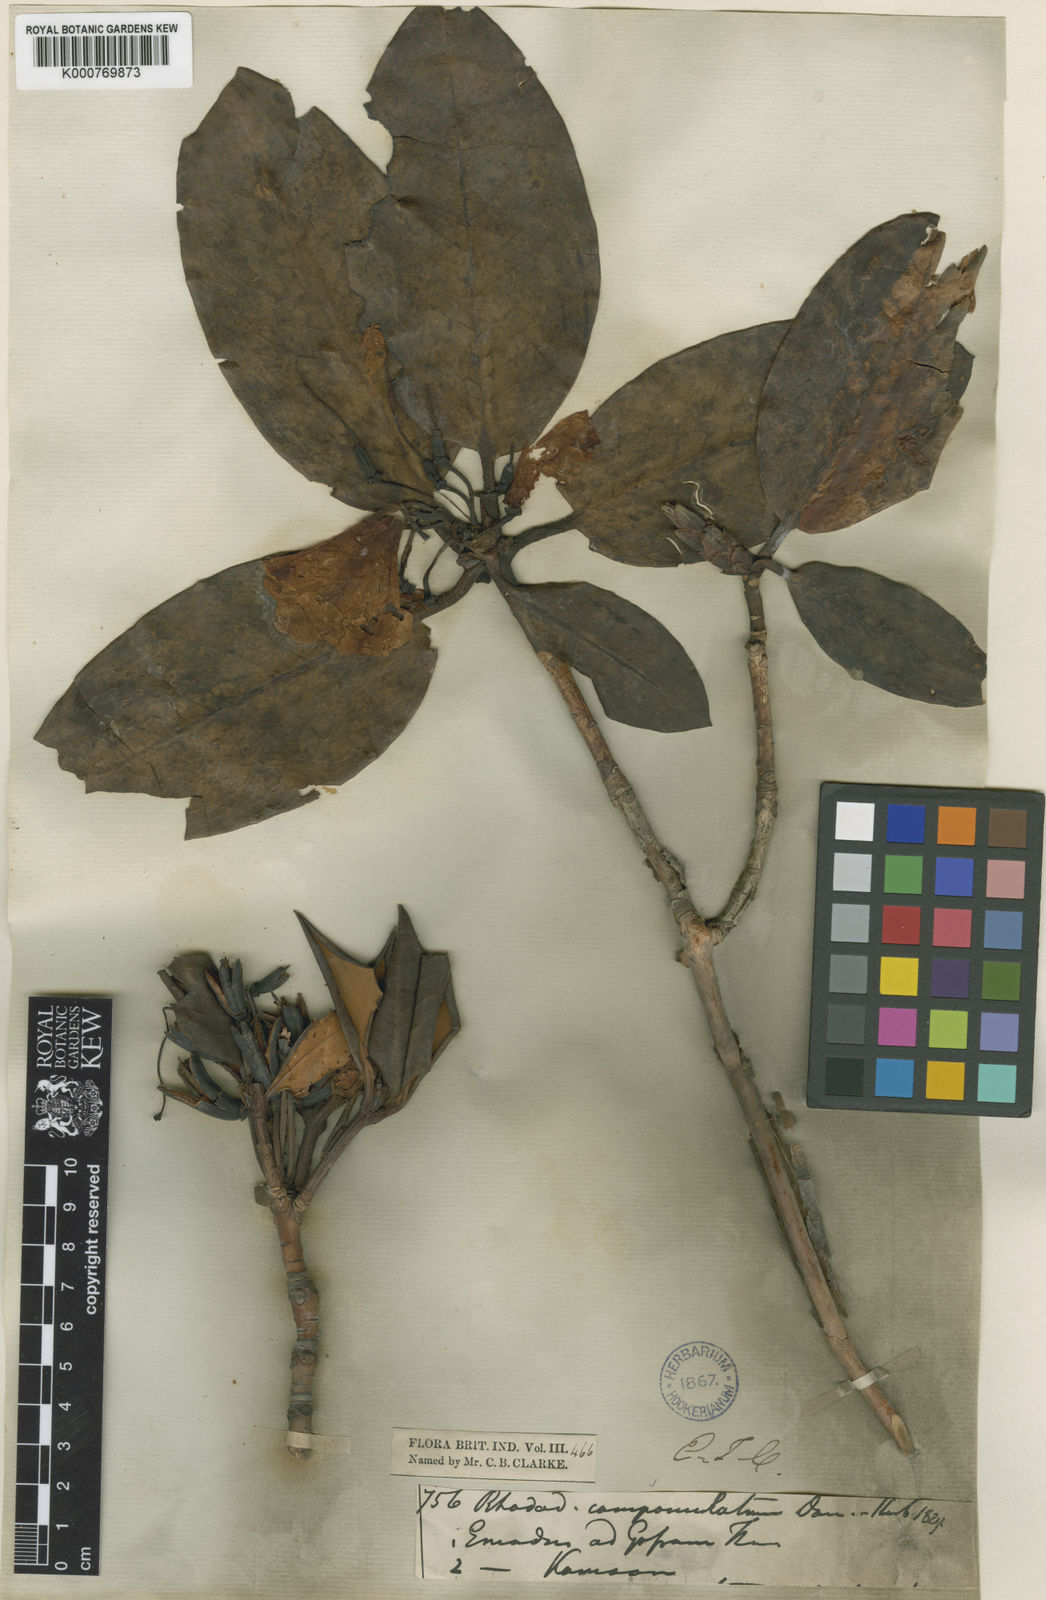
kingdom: Plantae
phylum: Tracheophyta
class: Magnoliopsida
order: Ericales
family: Ericaceae
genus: Rhododendron
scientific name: Rhododendron
